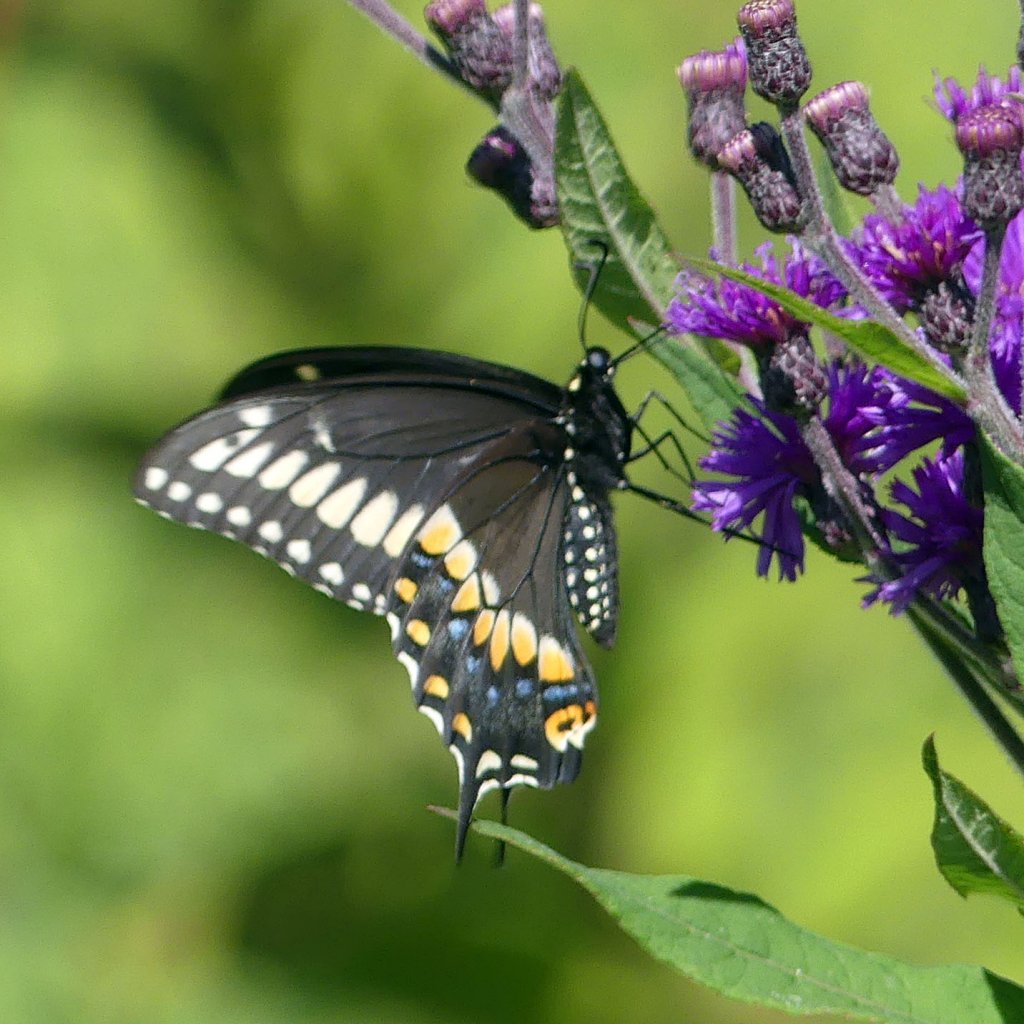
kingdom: Animalia
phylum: Arthropoda
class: Insecta
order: Lepidoptera
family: Papilionidae
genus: Papilio
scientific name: Papilio polyxenes
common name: Black Swallowtail
